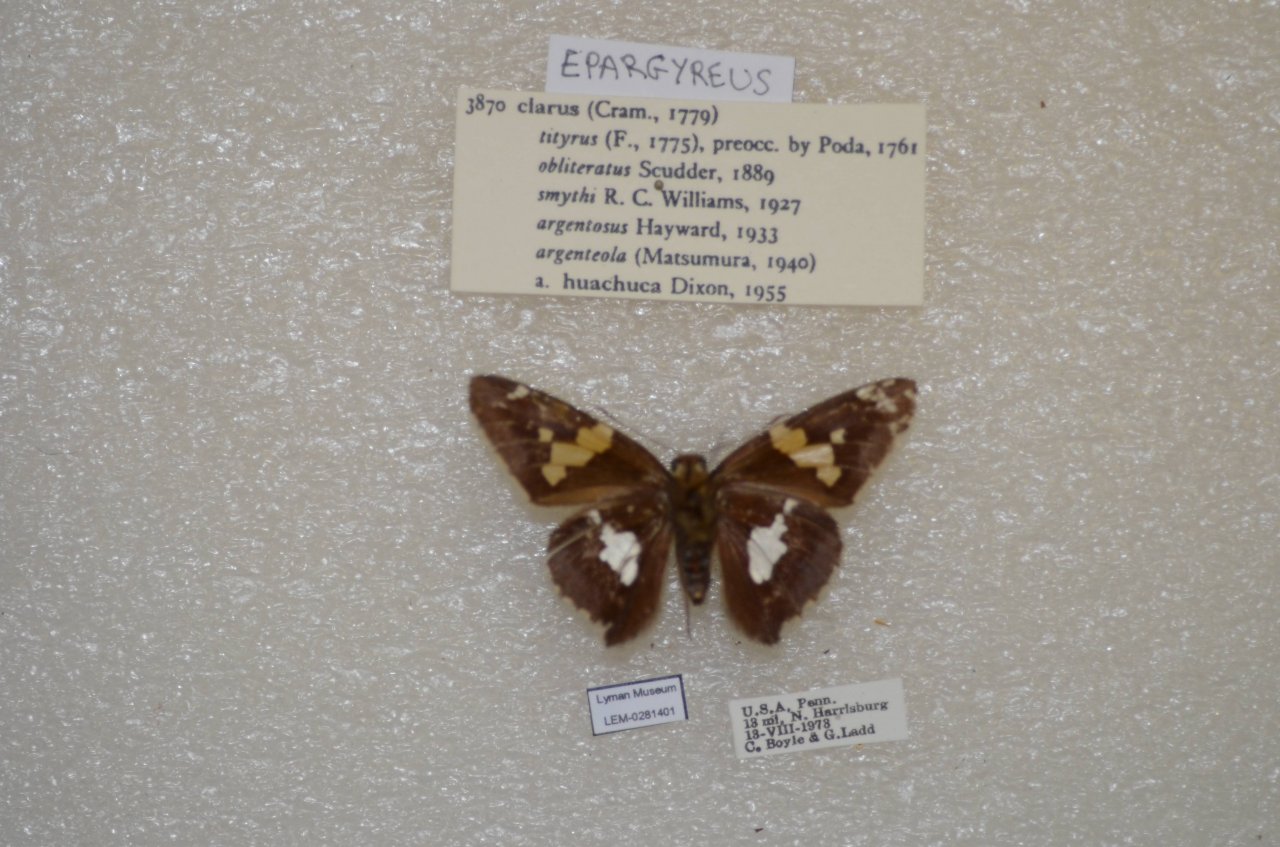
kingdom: Animalia
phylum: Arthropoda
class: Insecta
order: Lepidoptera
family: Hesperiidae
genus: Epargyreus
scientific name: Epargyreus clarus
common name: Silver-spotted Skipper
